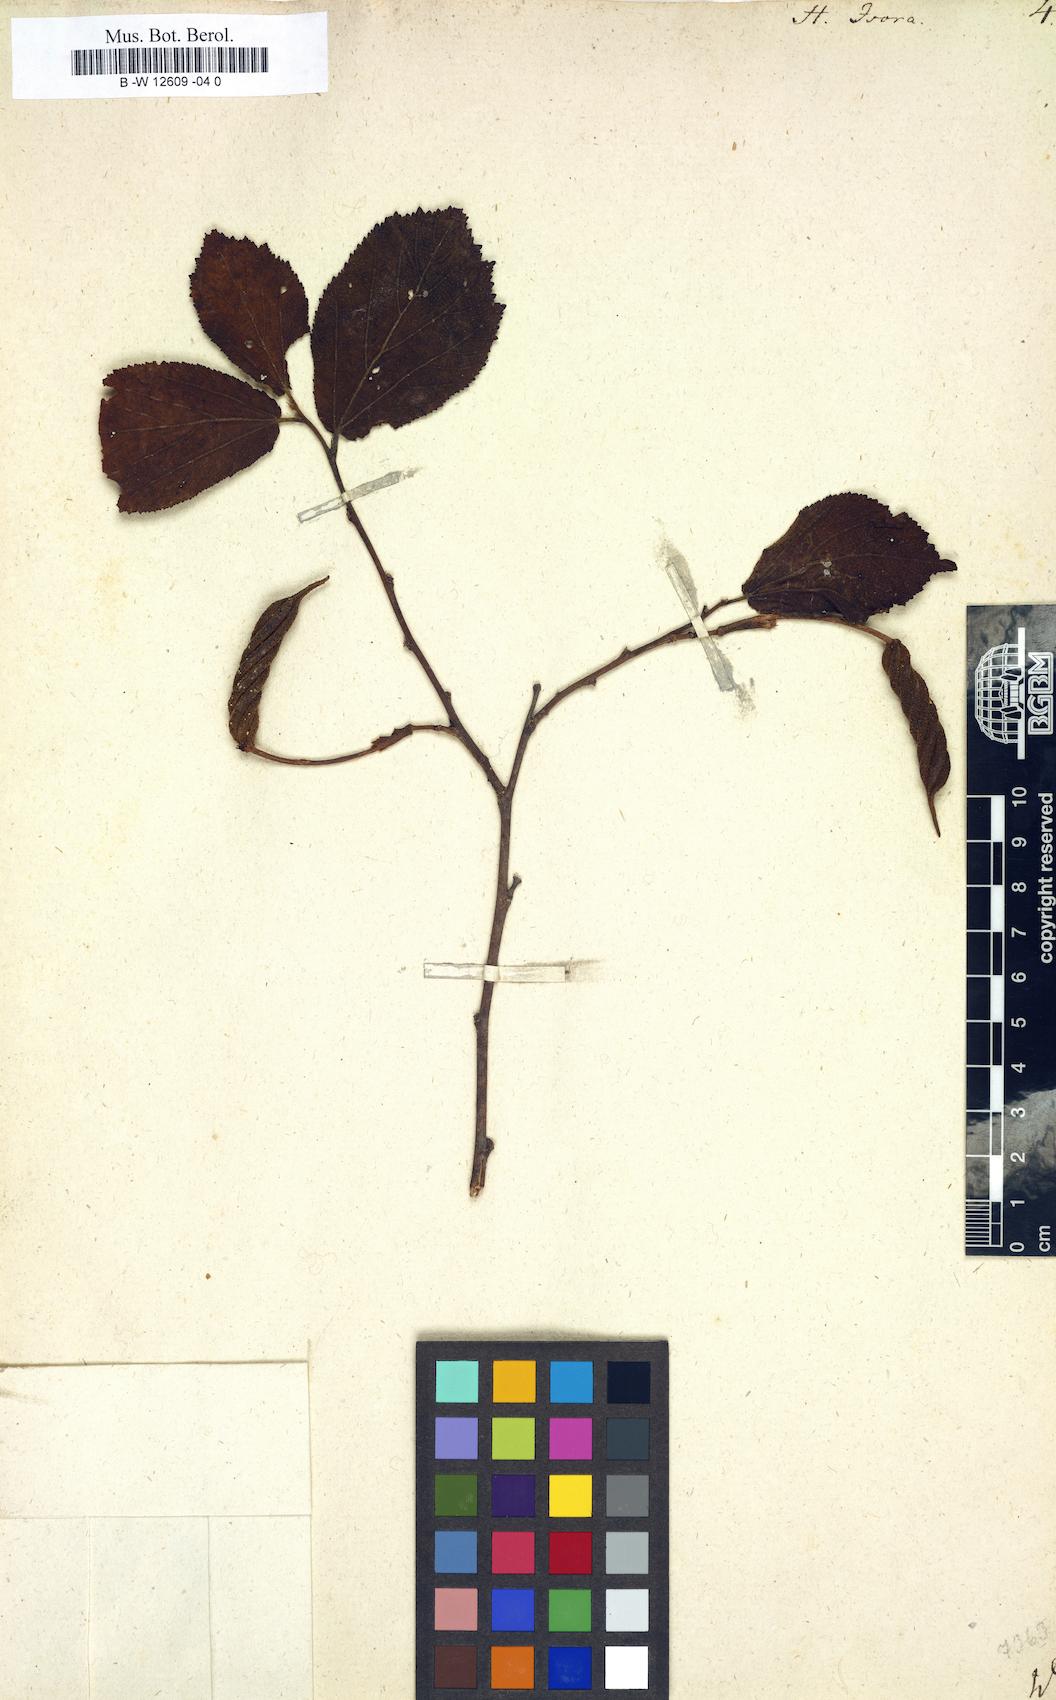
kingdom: Plantae
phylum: Tracheophyta
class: Magnoliopsida
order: Malvales
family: Malvaceae
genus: Helicteres
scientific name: Helicteres isora
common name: East indian screwtree
